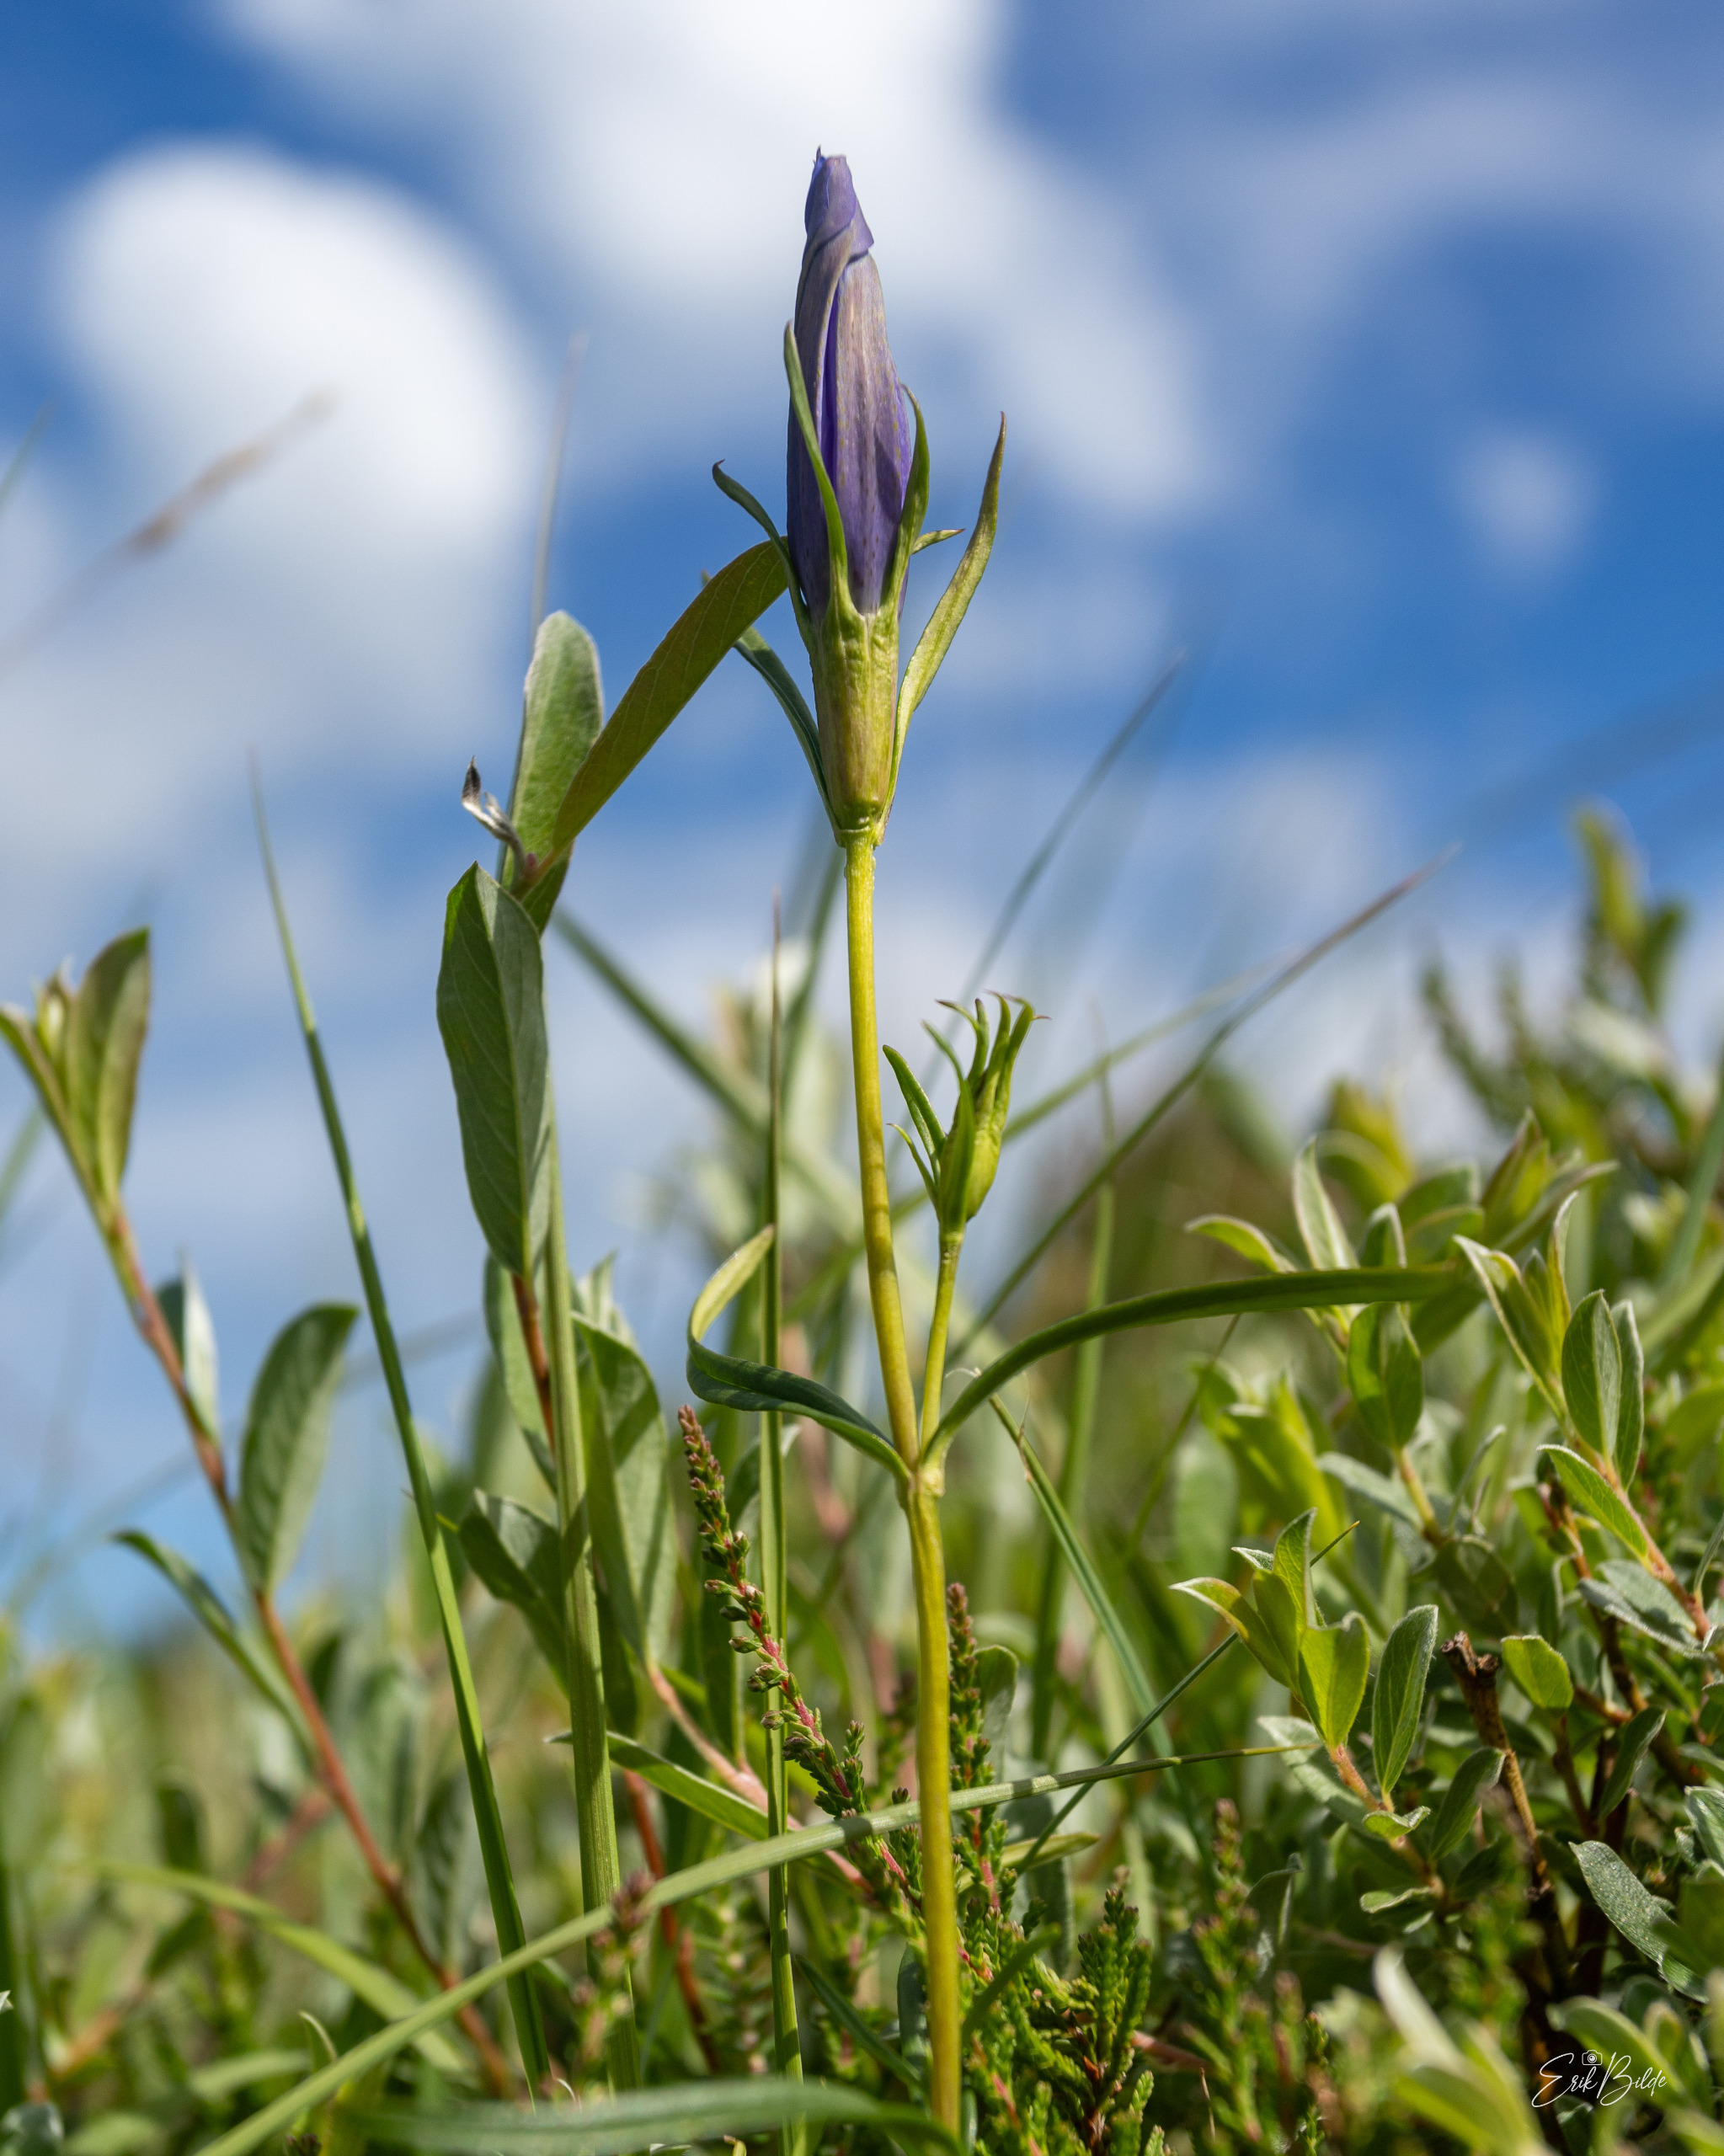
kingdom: Plantae
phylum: Tracheophyta
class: Magnoliopsida
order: Gentianales
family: Gentianaceae
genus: Gentiana
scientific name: Gentiana pneumonanthe
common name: Klokke-ensian
